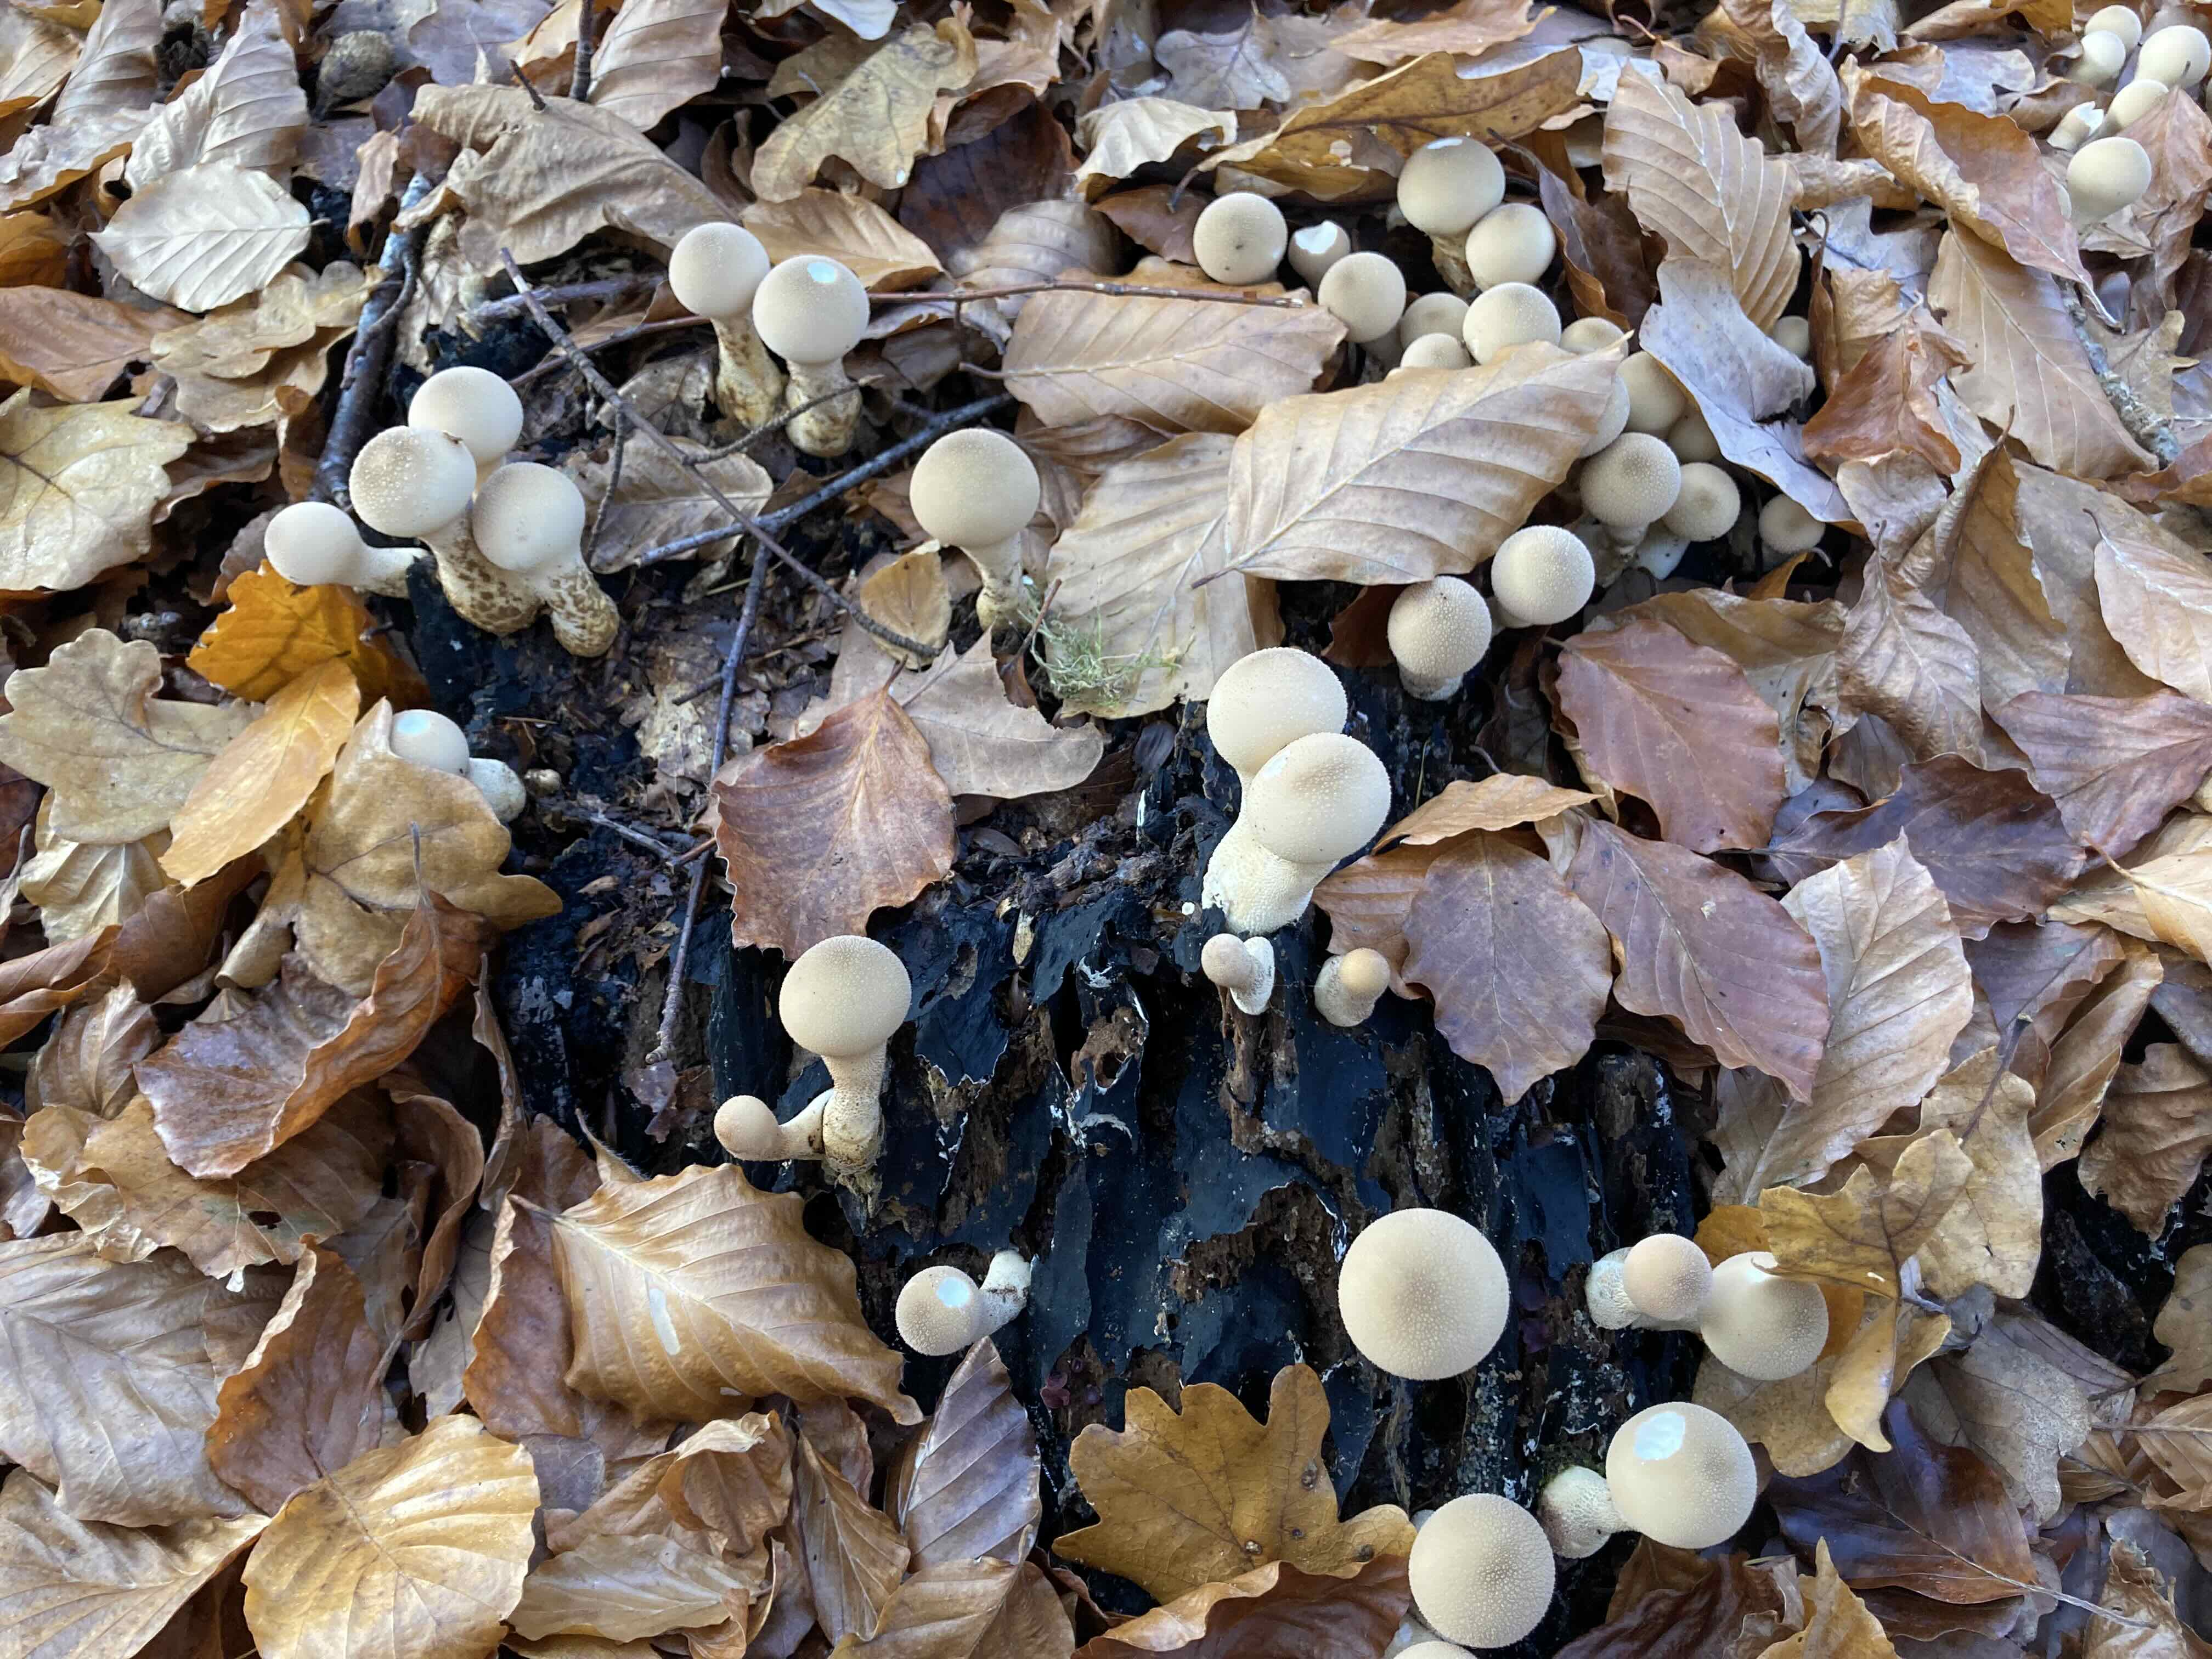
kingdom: Fungi
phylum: Basidiomycota
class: Agaricomycetes
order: Agaricales
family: Lycoperdaceae
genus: Apioperdon
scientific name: Apioperdon pyriforme
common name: pære-støvbold
